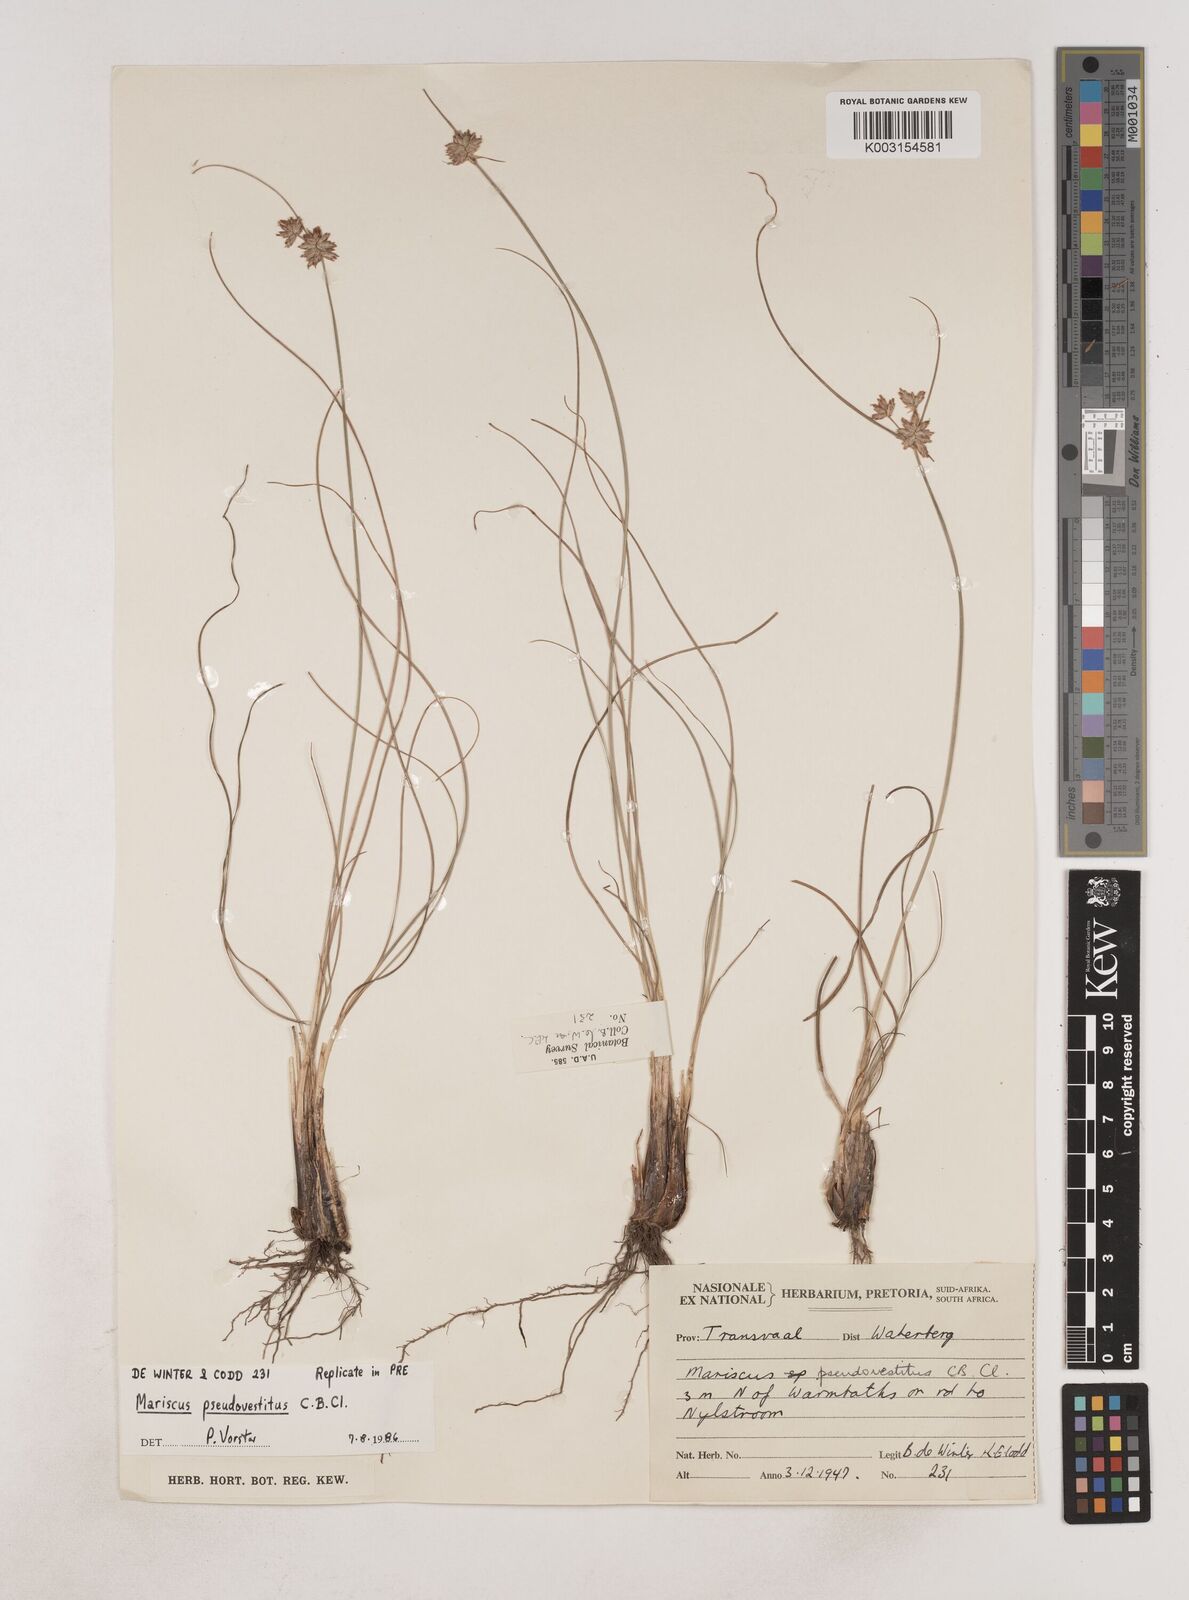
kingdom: Plantae
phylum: Tracheophyta
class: Liliopsida
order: Poales
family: Cyperaceae
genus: Cyperus
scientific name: Cyperus pseudovestitus
